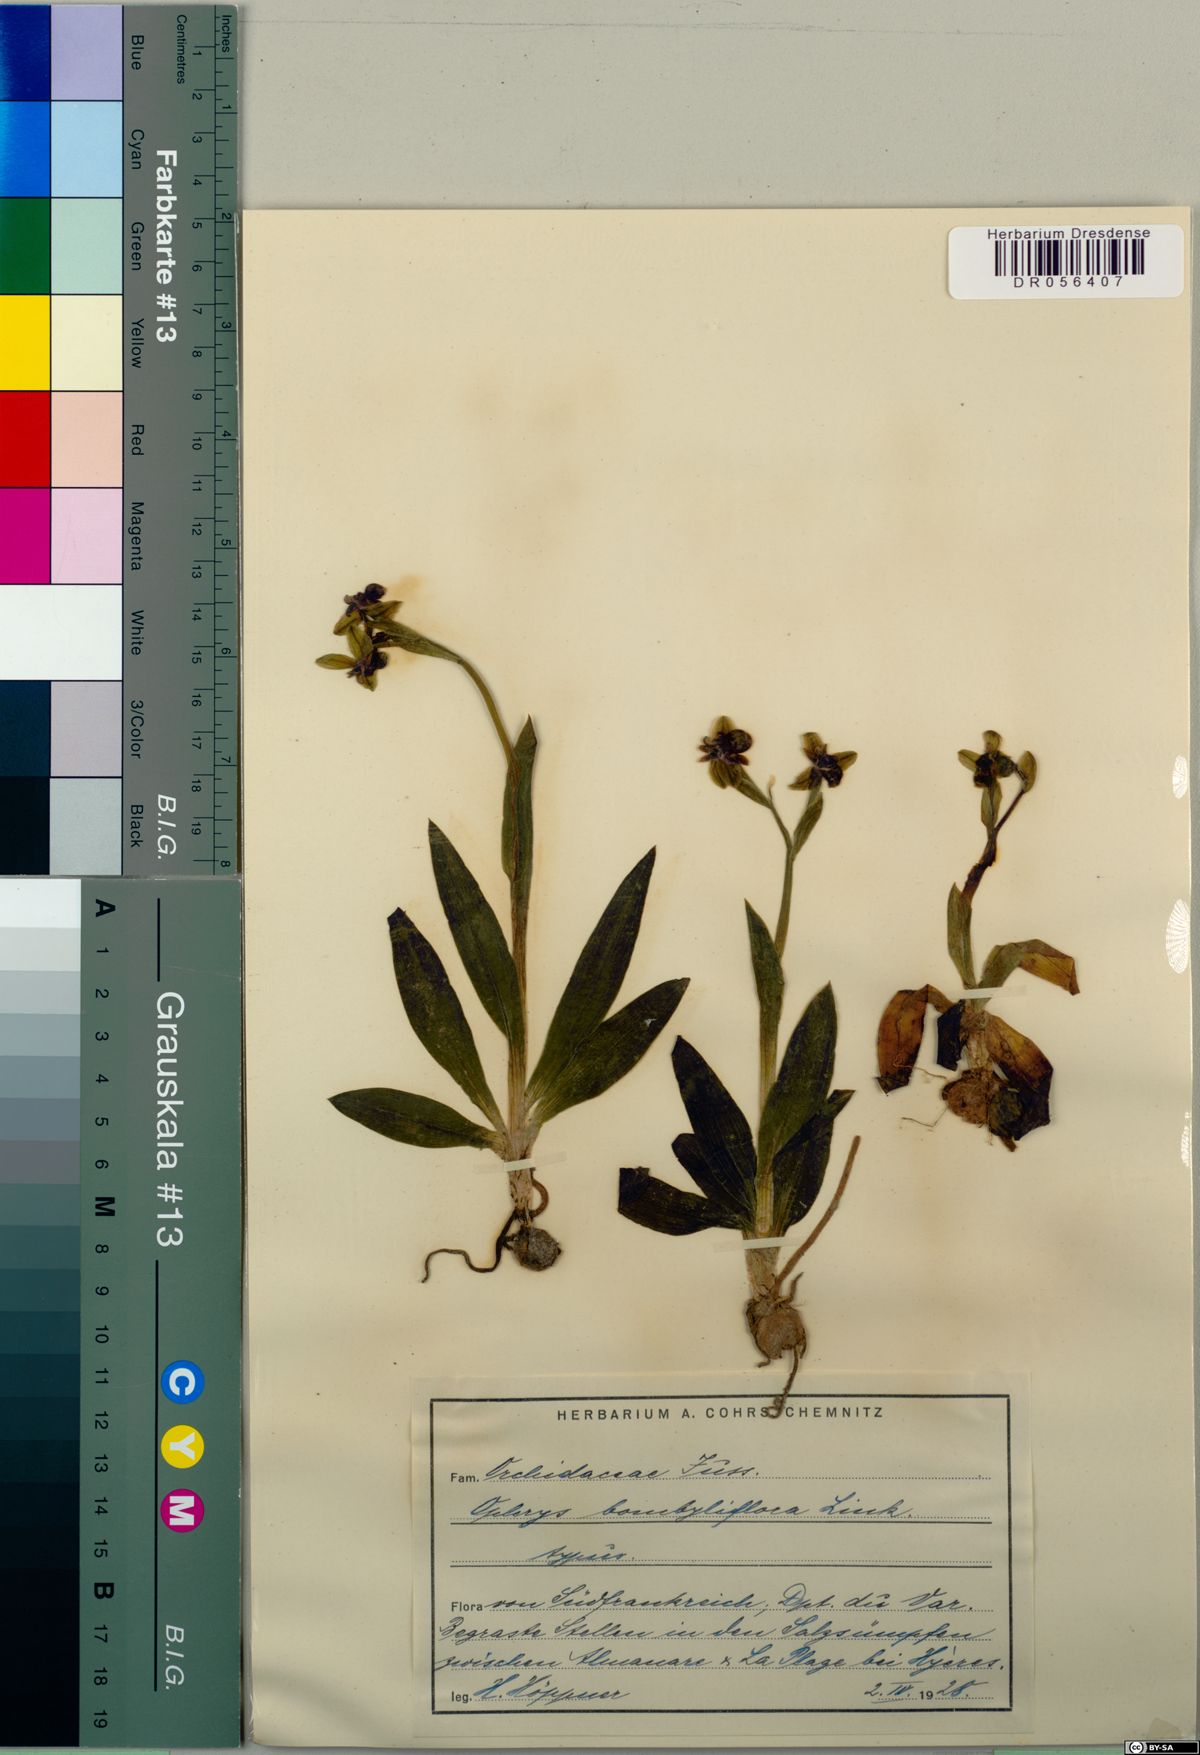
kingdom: Plantae
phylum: Tracheophyta
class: Liliopsida
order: Asparagales
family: Orchidaceae
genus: Ophrys
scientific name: Ophrys bombyliflora
